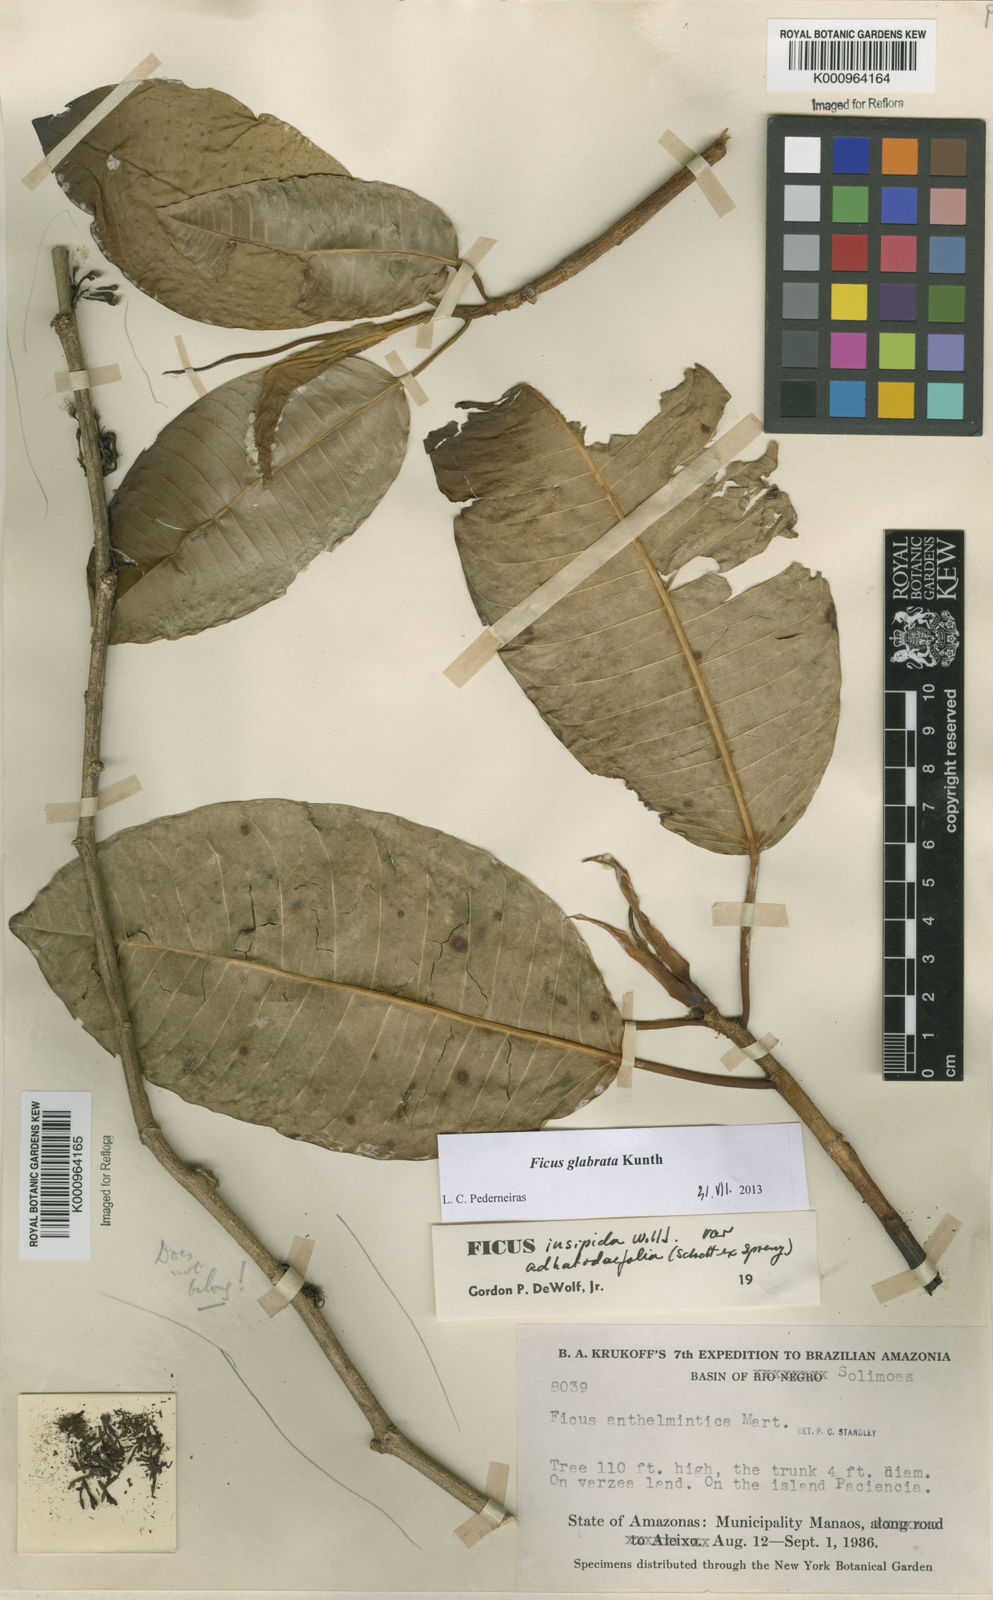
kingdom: Plantae
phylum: Tracheophyta
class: Magnoliopsida
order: Rosales
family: Moraceae
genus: Ficus
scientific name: Ficus insipida
